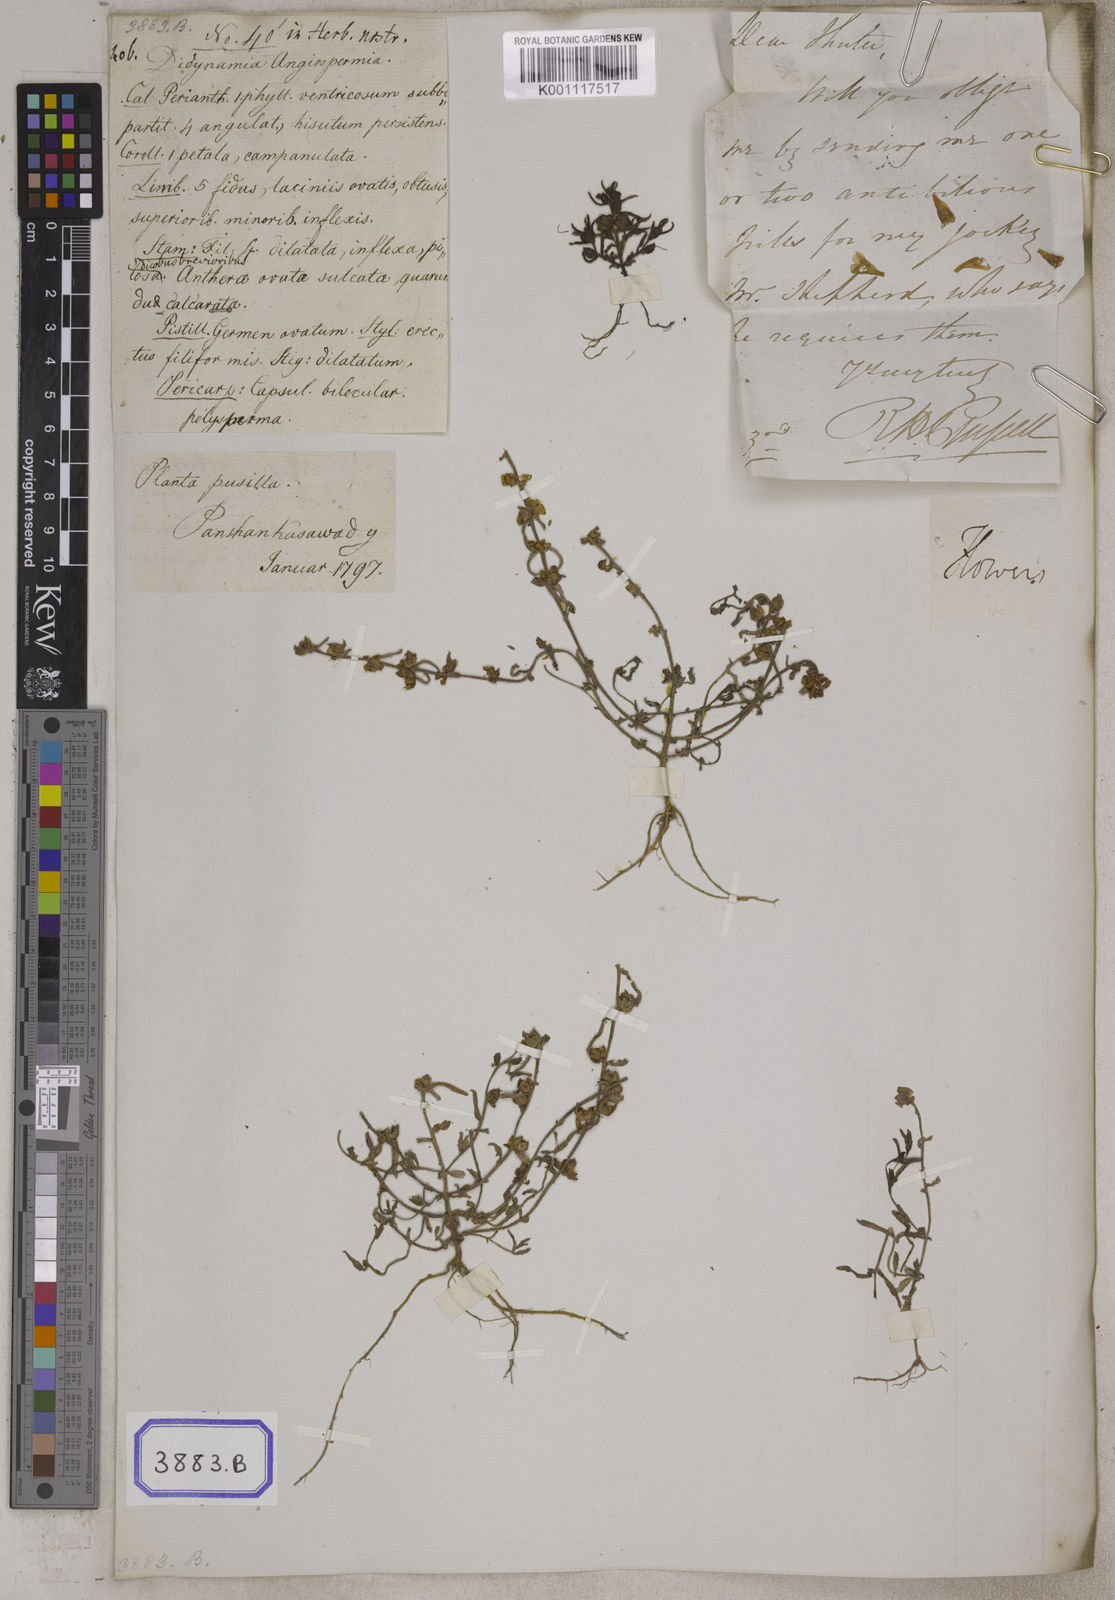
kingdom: Plantae
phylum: Tracheophyta
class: Magnoliopsida
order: Lamiales
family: Orobanchaceae
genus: Centranthera
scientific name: Centranthera
